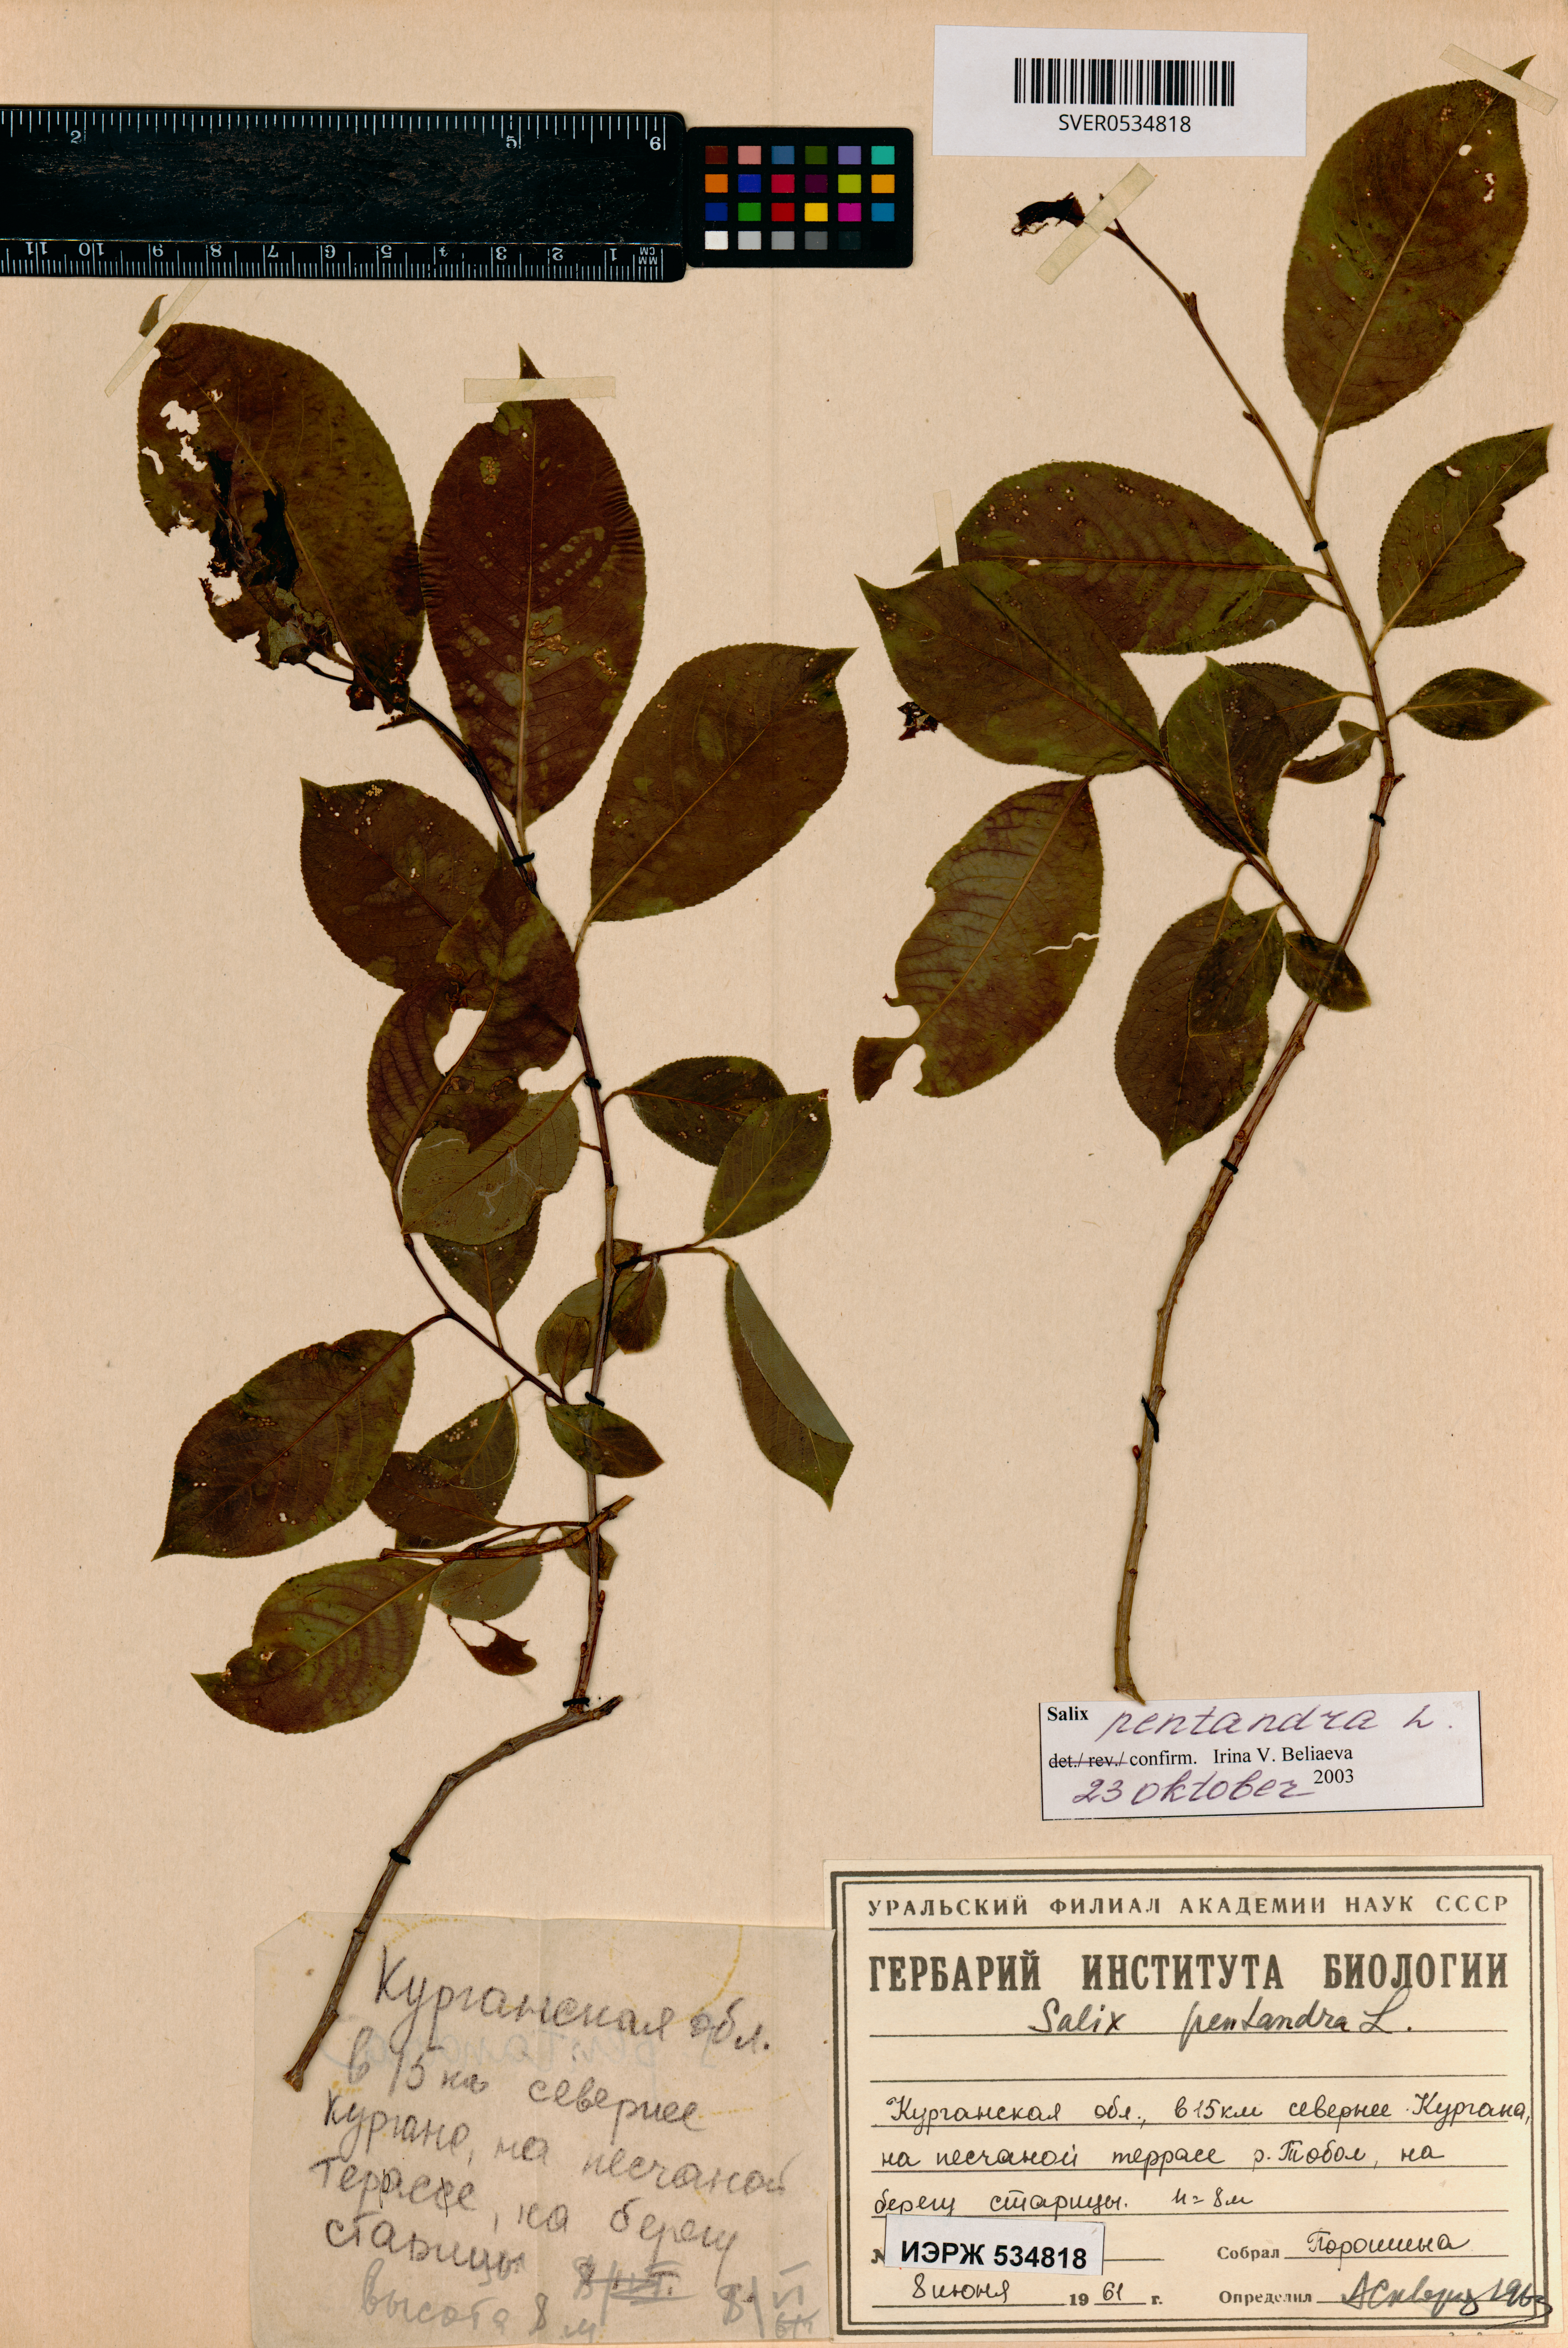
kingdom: Plantae
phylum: Tracheophyta
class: Magnoliopsida
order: Malpighiales
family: Salicaceae
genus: Salix
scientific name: Salix pentandra
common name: Bay willow
